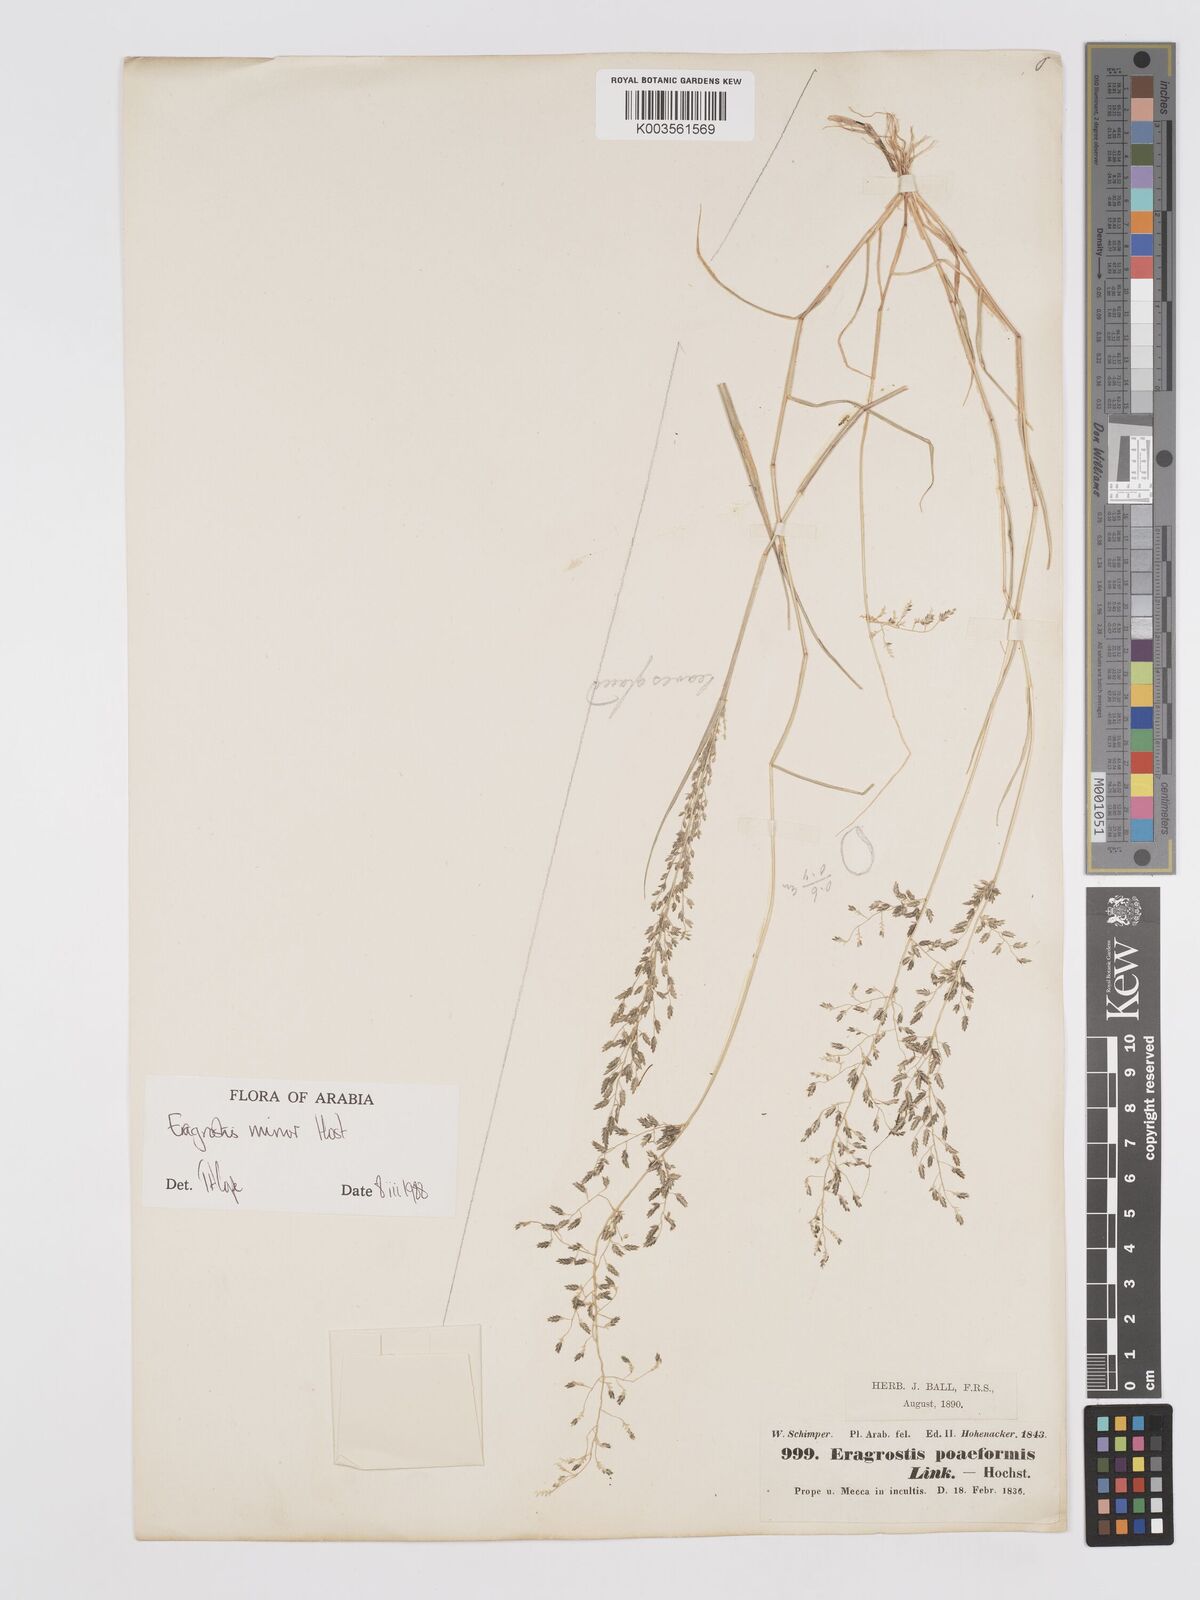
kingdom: Plantae
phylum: Tracheophyta
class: Liliopsida
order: Poales
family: Poaceae
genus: Eragrostis
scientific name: Eragrostis minor
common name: Small love-grass
